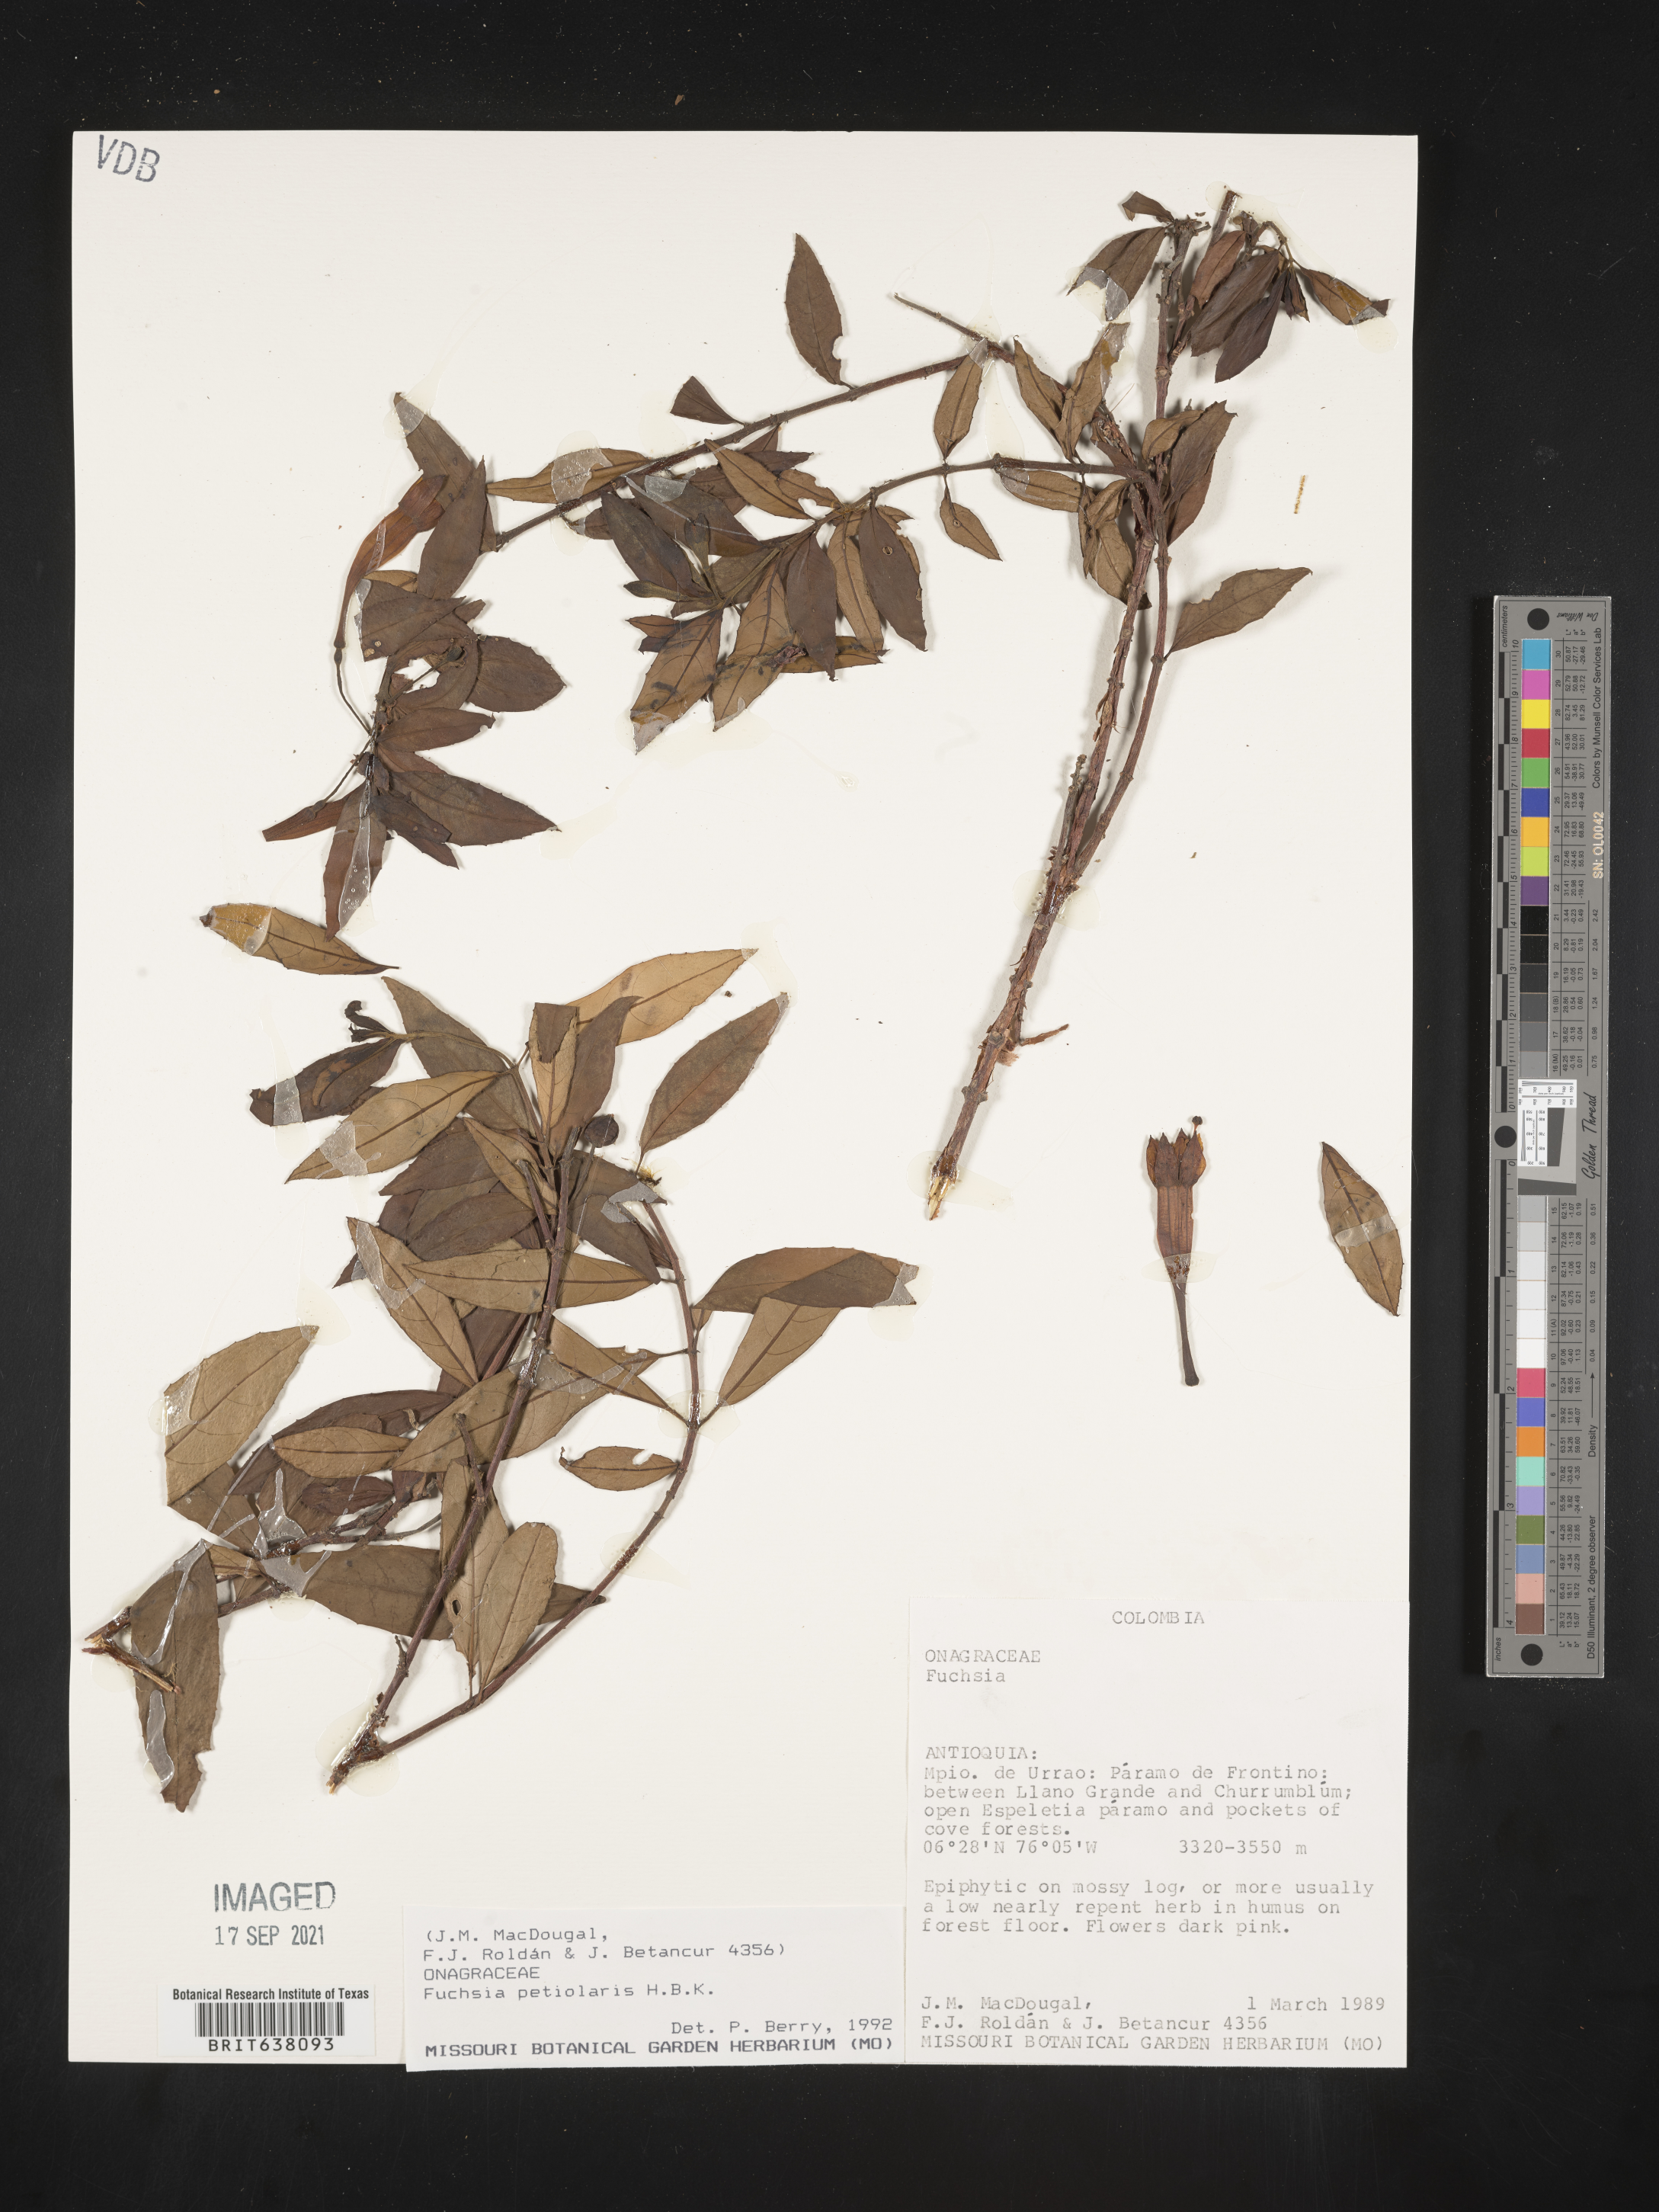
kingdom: Plantae
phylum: Tracheophyta
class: Magnoliopsida
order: Myrtales
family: Onagraceae
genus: Fuchsia
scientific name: Fuchsia
